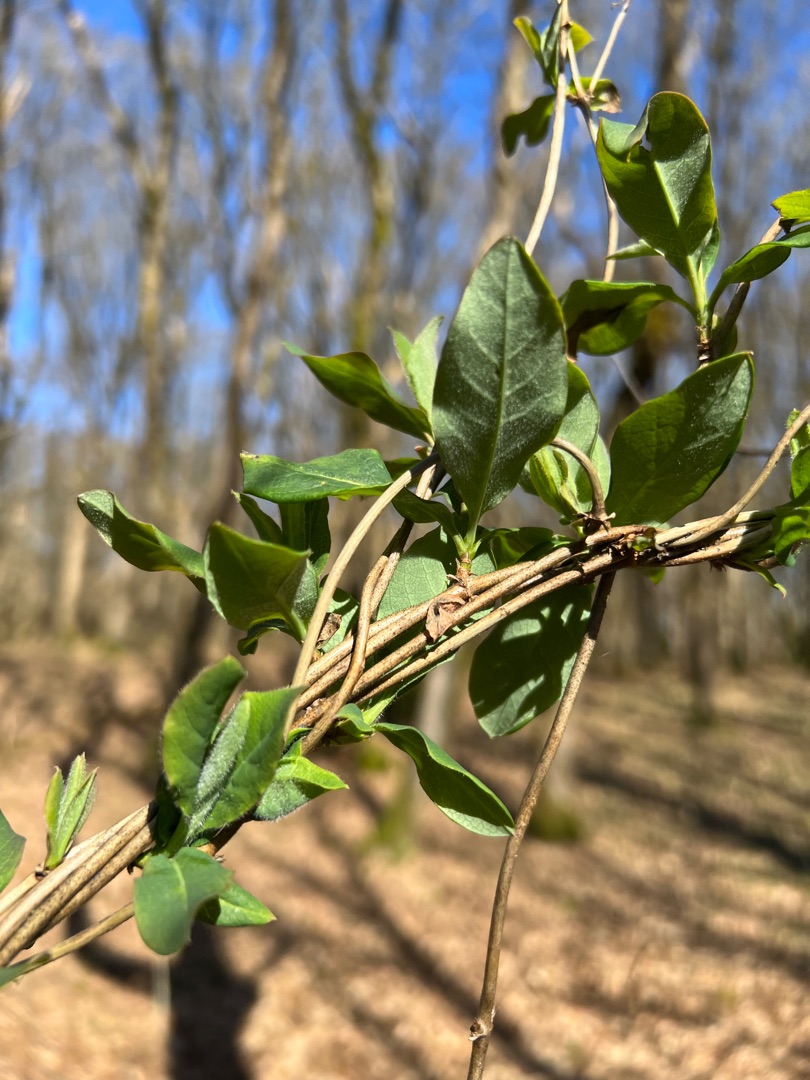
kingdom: Plantae
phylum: Tracheophyta
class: Magnoliopsida
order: Dipsacales
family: Caprifoliaceae
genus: Lonicera
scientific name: Lonicera periclymenum
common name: Almindelig gedeblad
